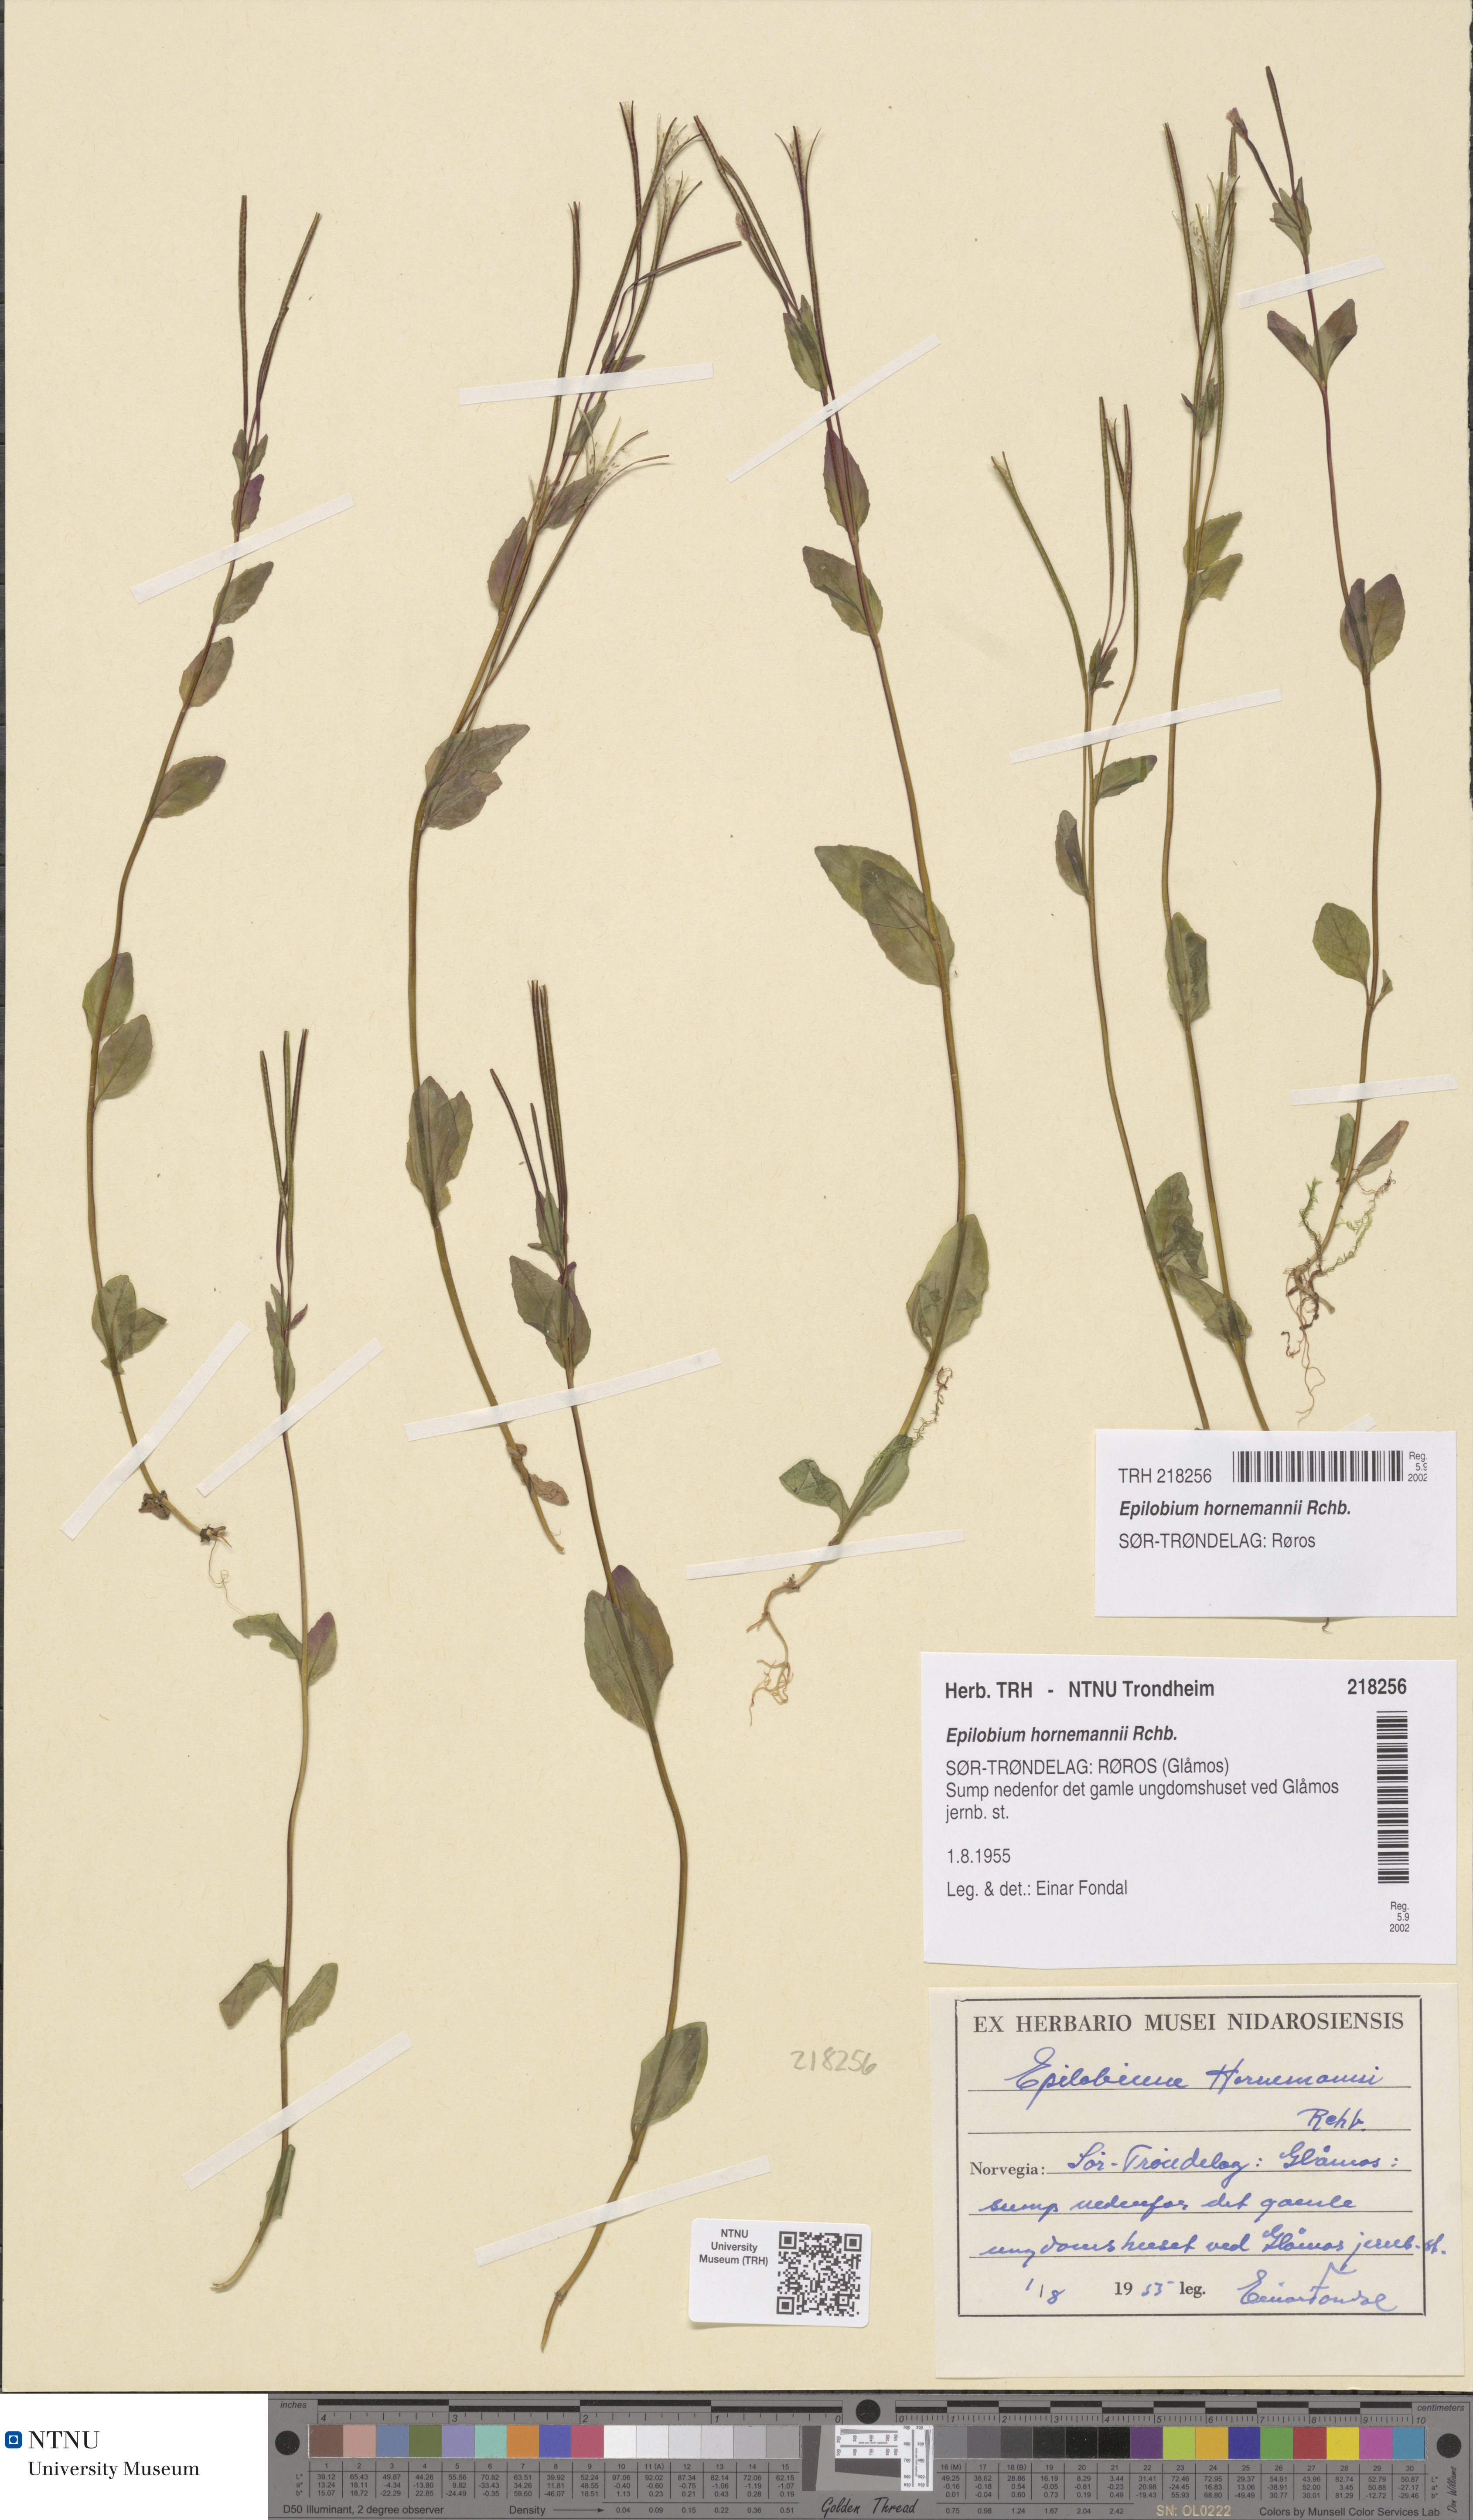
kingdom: Plantae
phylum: Tracheophyta
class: Magnoliopsida
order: Myrtales
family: Onagraceae
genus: Epilobium
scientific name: Epilobium hornemannii
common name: Hornemann's willowherb
